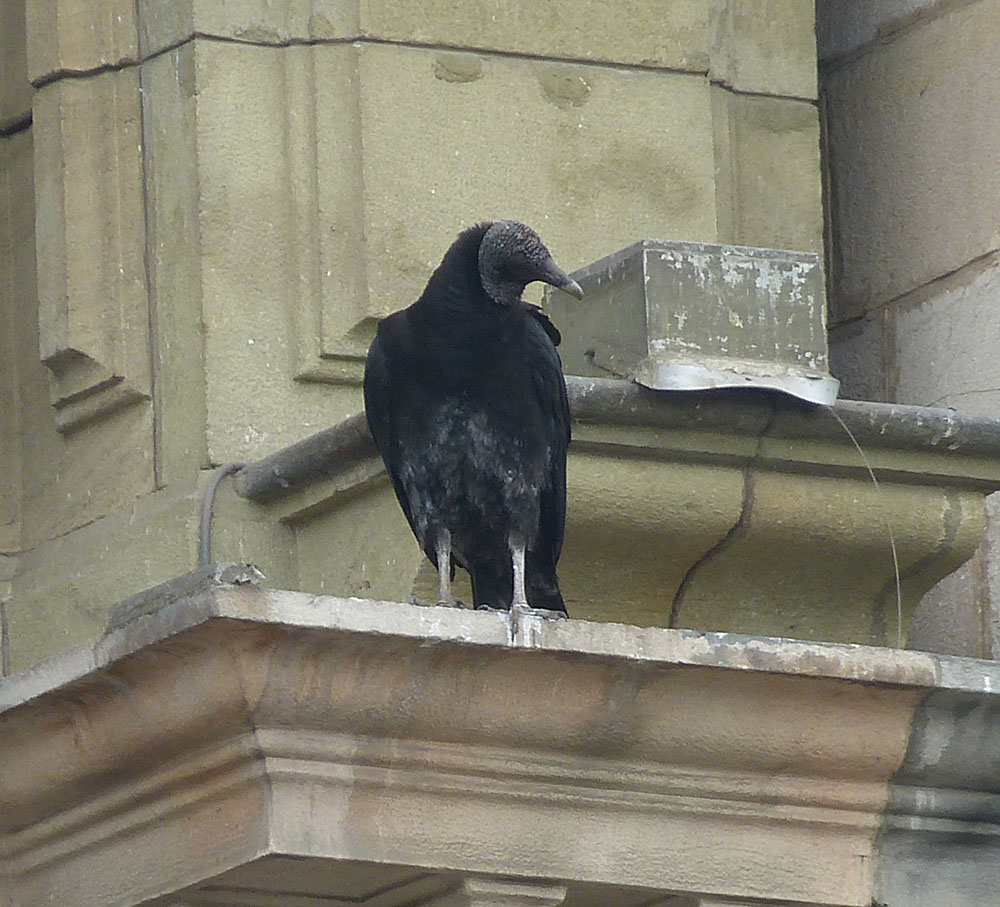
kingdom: Animalia
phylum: Chordata
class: Aves
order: Accipitriformes
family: Cathartidae
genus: Coragyps
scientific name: Coragyps atratus
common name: Black vulture
